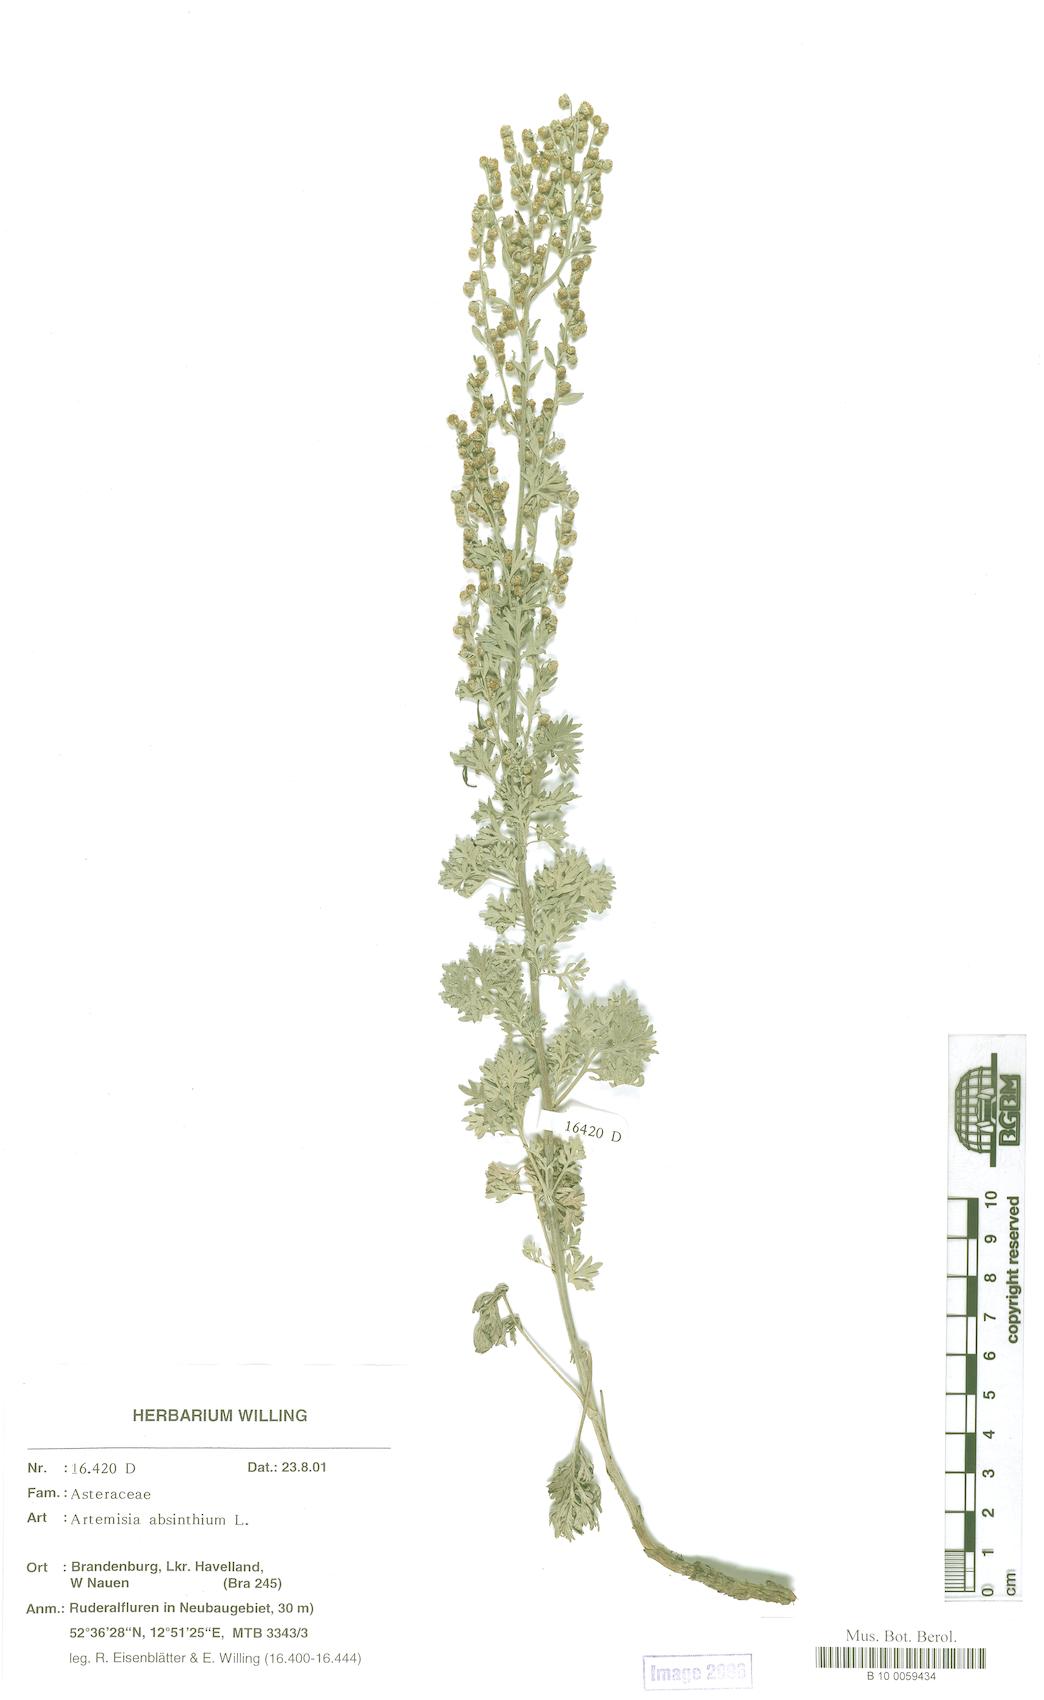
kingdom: Plantae
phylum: Tracheophyta
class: Magnoliopsida
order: Asterales
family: Asteraceae
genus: Artemisia
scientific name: Artemisia absinthium
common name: Wormwood
